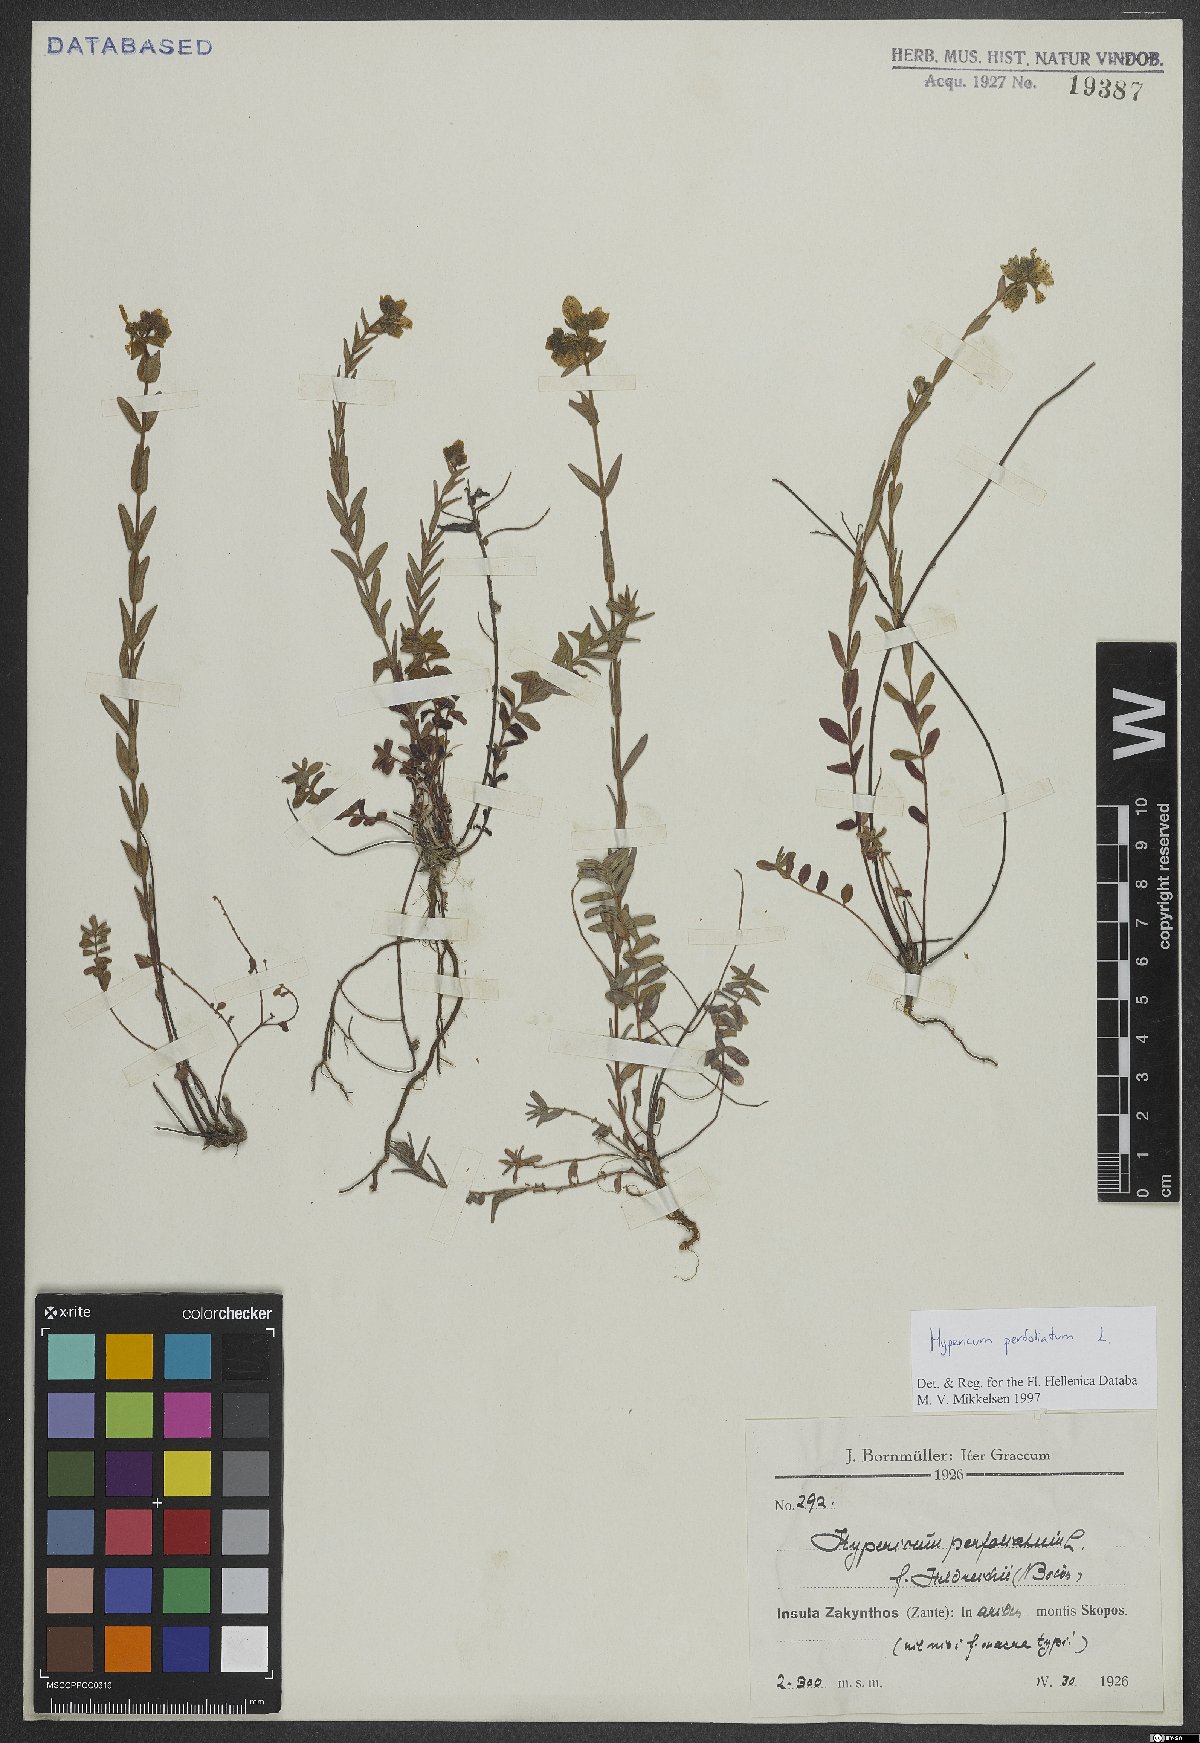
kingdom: Plantae
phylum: Tracheophyta
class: Magnoliopsida
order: Malpighiales
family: Hypericaceae
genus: Hypericum
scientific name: Hypericum perfoliatum
